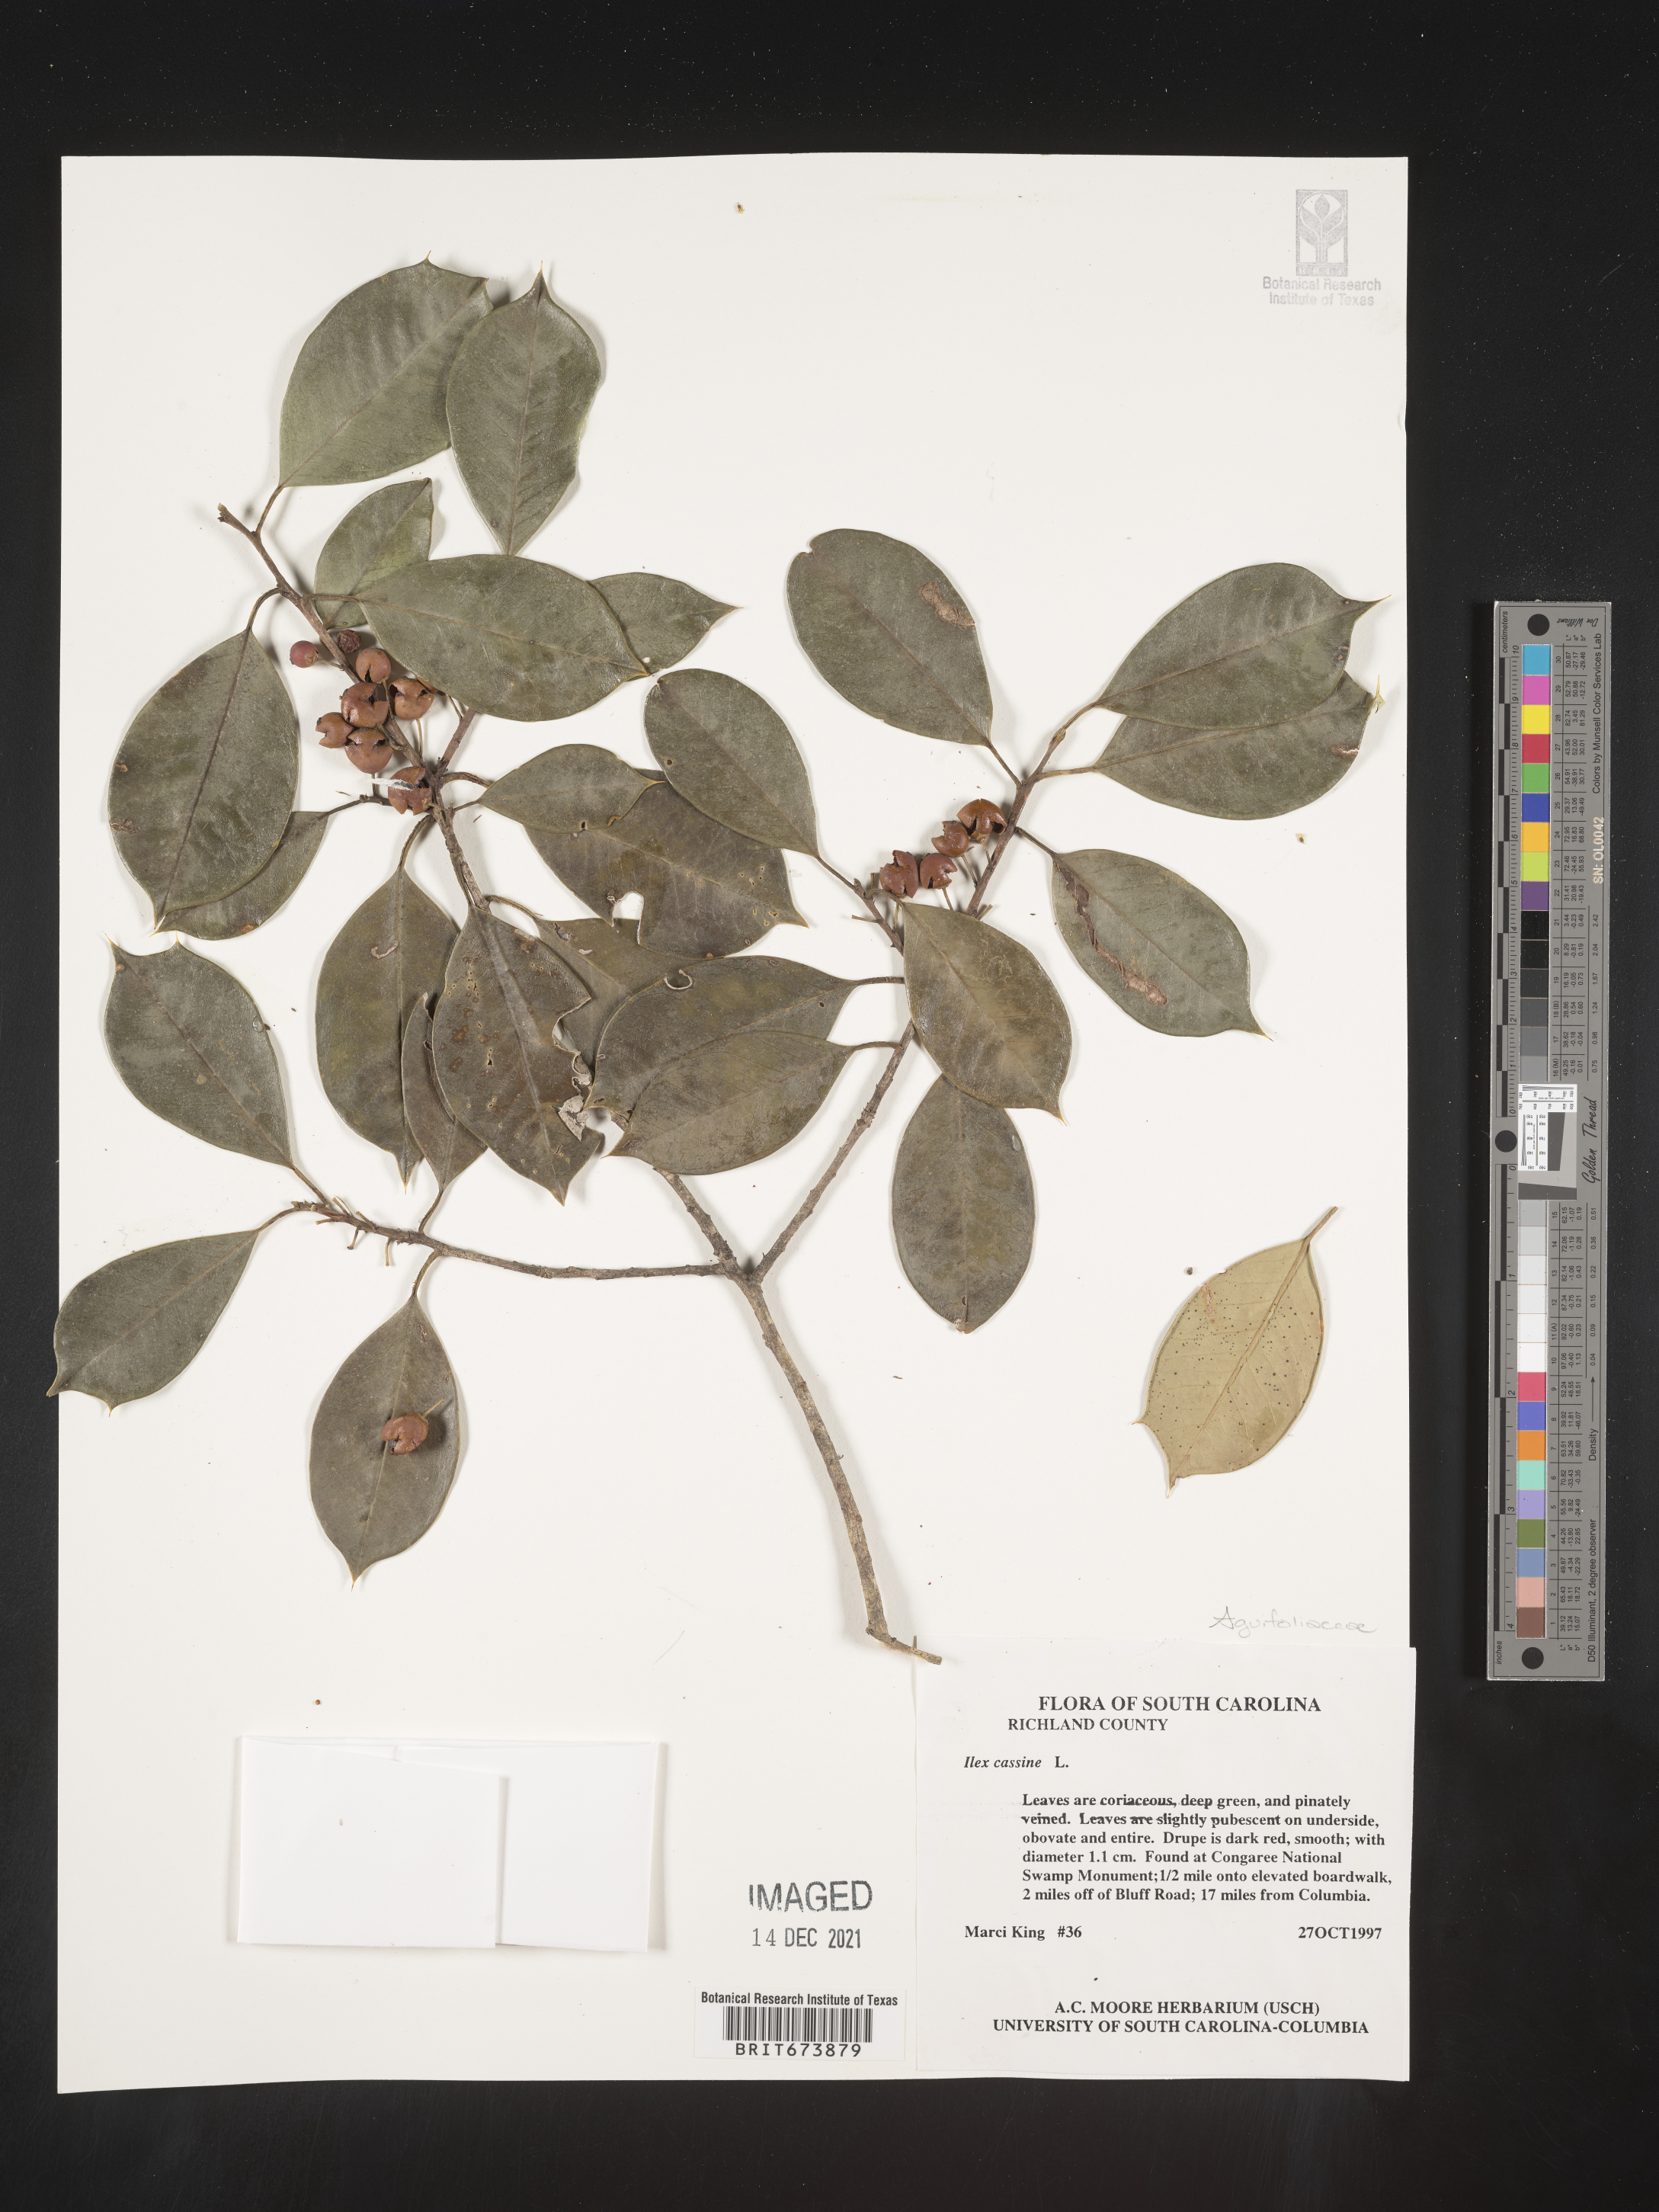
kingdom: Plantae
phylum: Tracheophyta
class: Magnoliopsida
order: Aquifoliales
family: Aquifoliaceae
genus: Ilex
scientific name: Ilex cassine
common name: Dahoon
